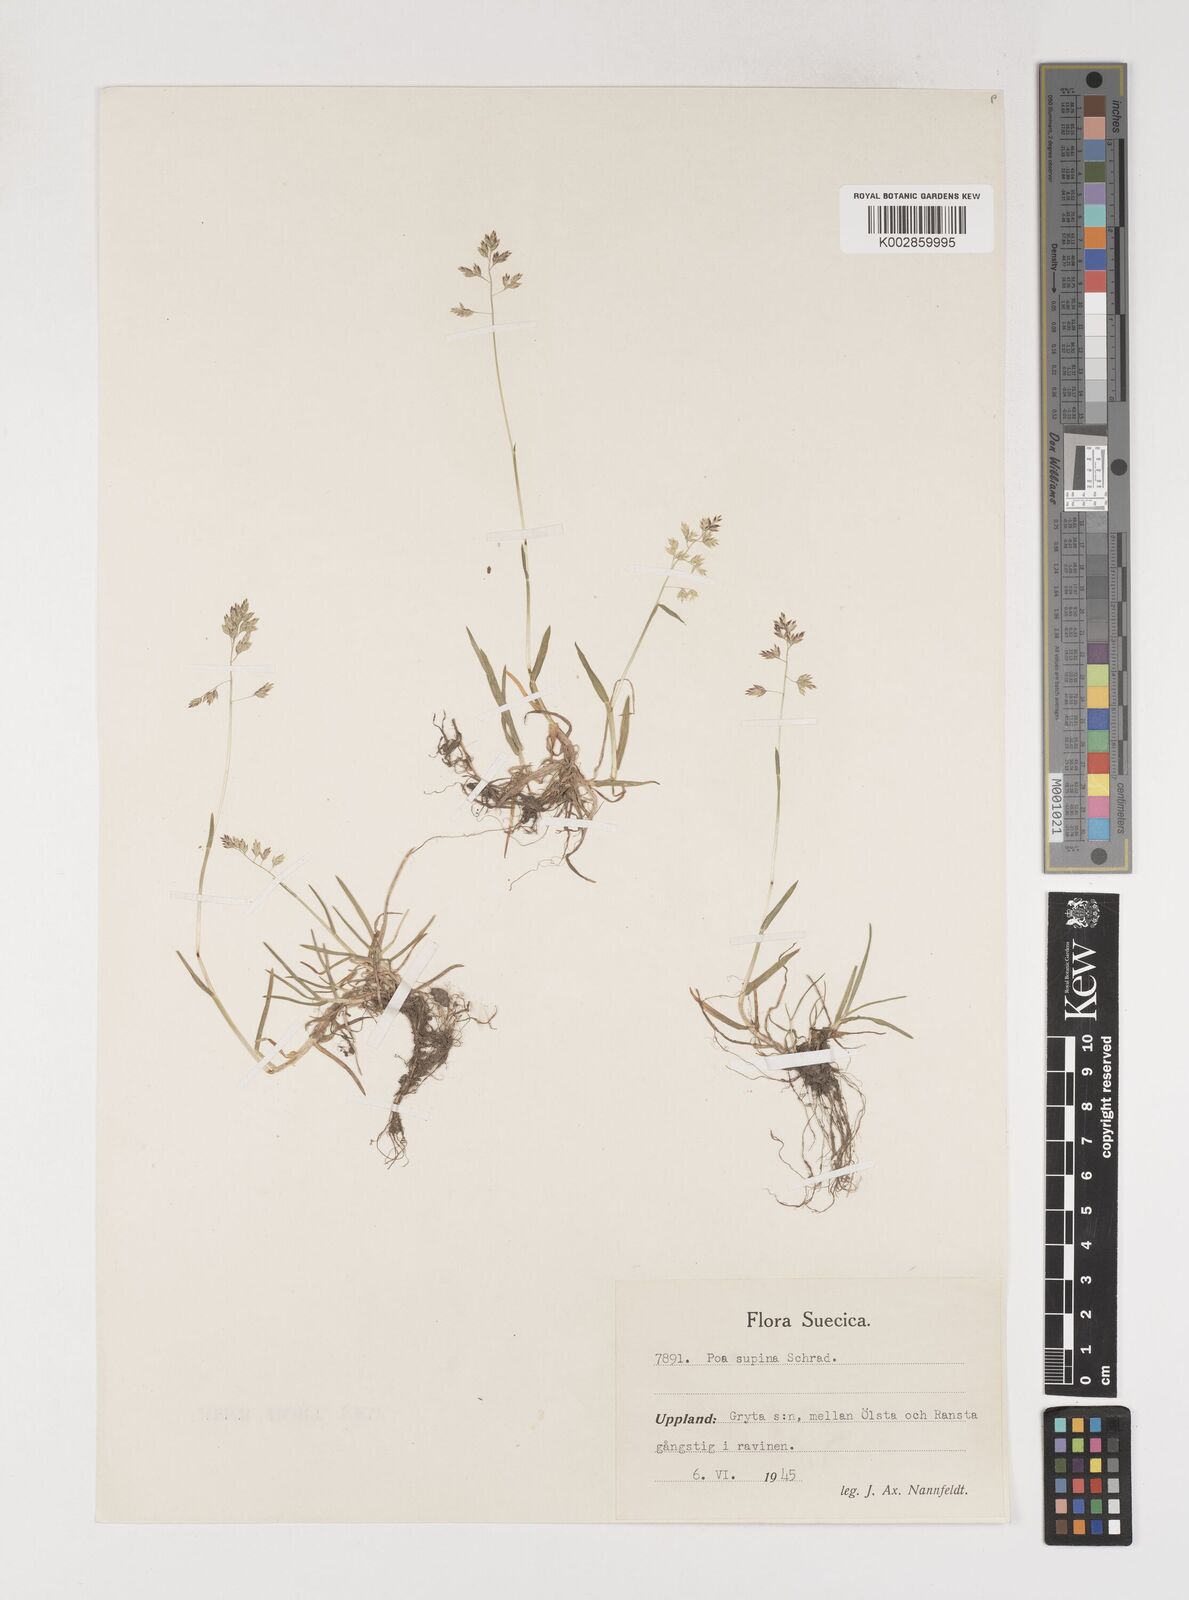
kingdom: Plantae
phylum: Tracheophyta
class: Liliopsida
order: Poales
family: Poaceae
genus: Poa
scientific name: Poa supina
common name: Supina bluegrass
